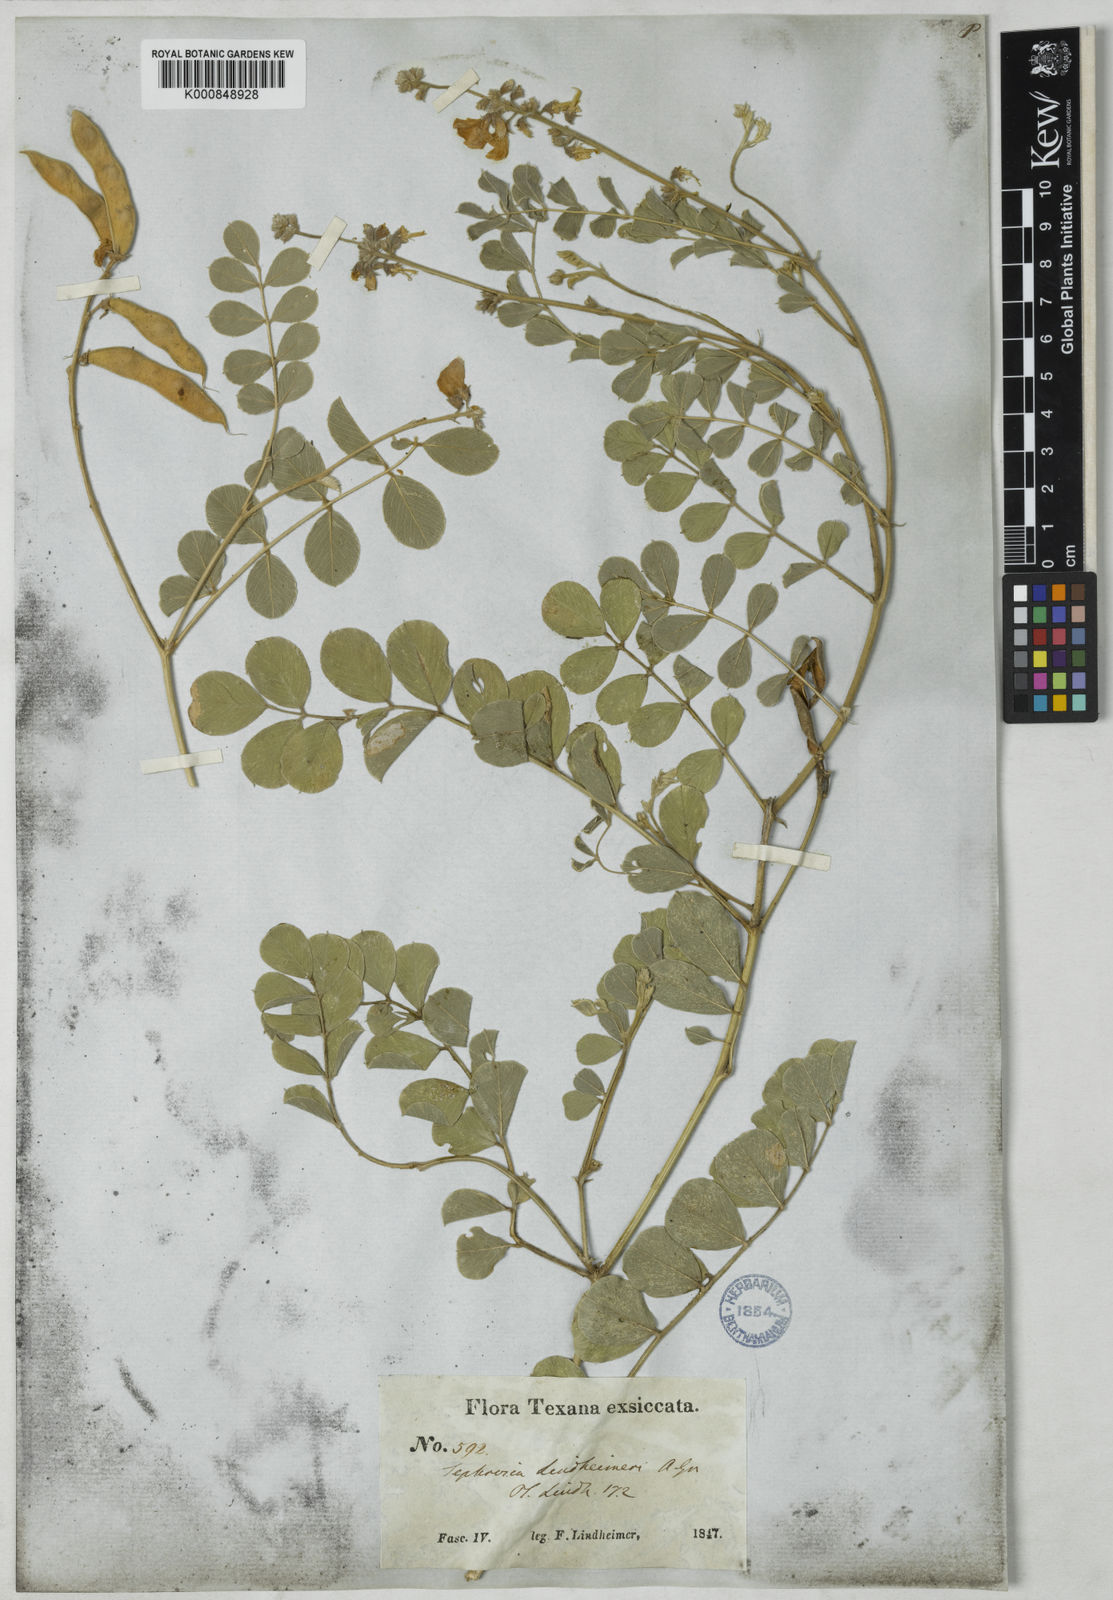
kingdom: Plantae
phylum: Tracheophyta
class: Magnoliopsida
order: Fabales
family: Fabaceae
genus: Tephrosia
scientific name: Tephrosia lindheimeri
